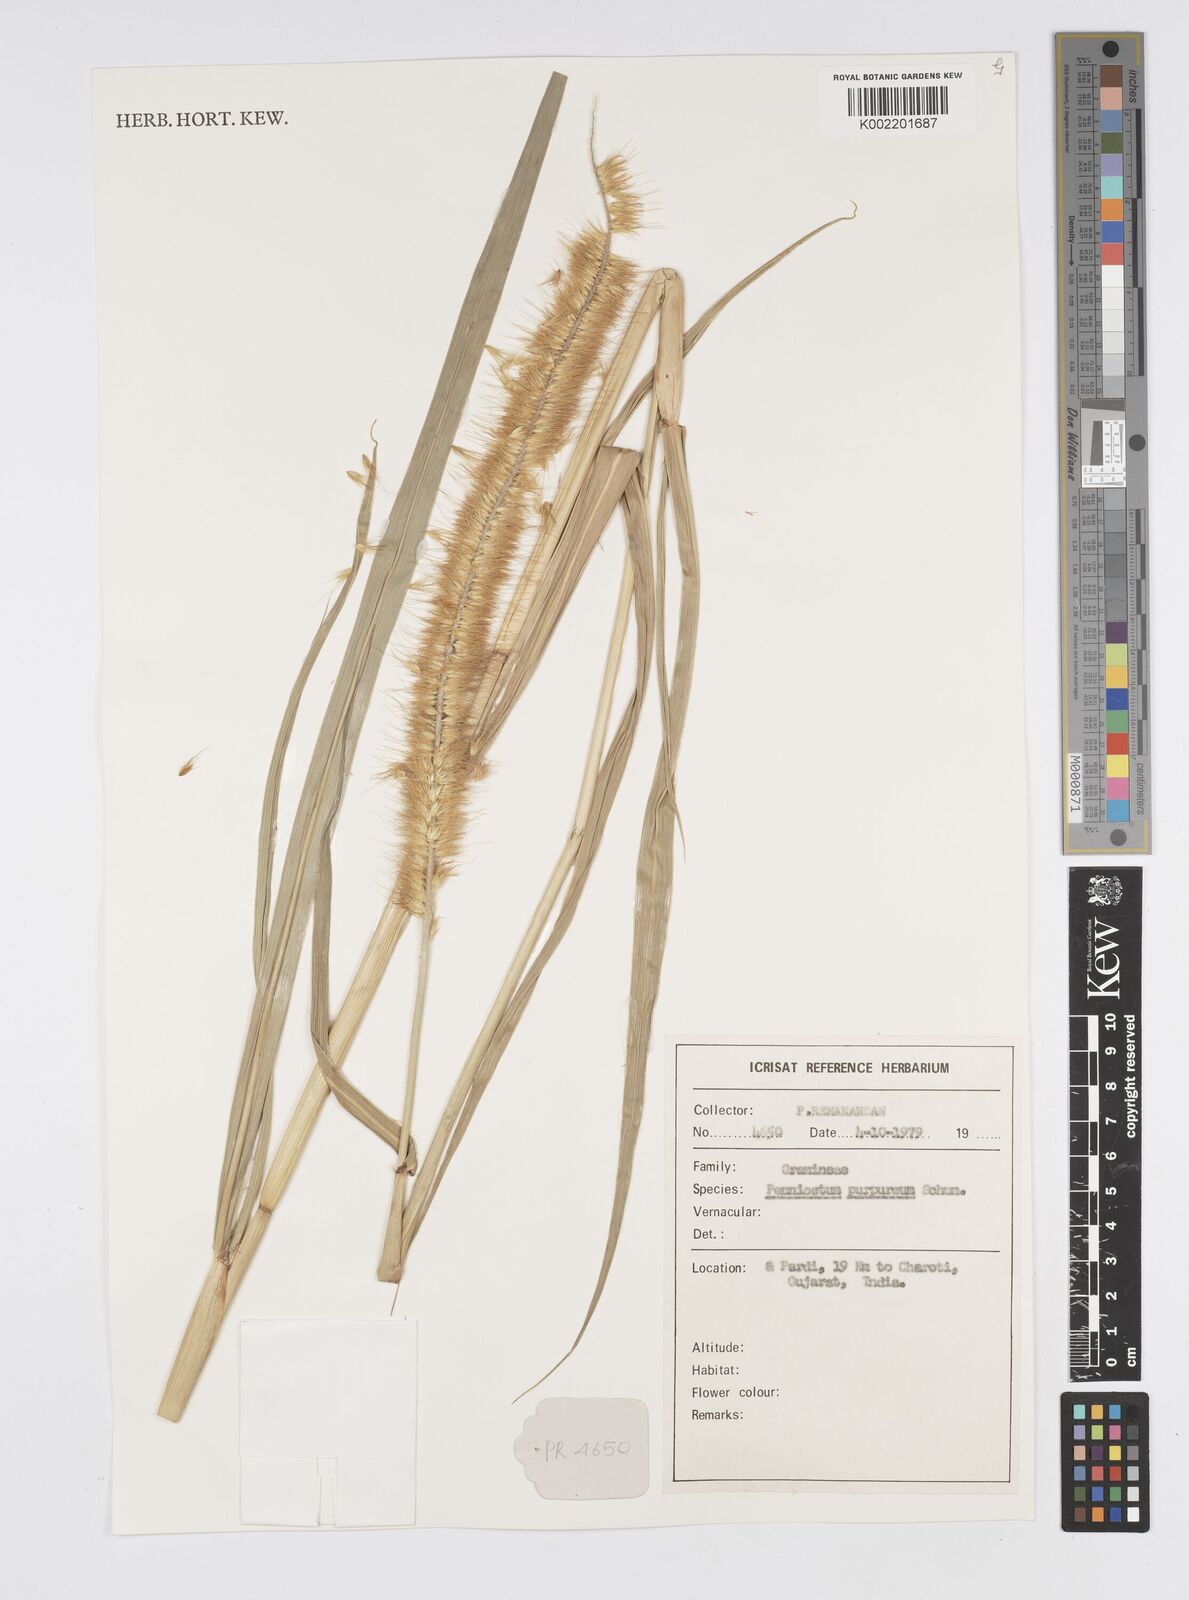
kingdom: Plantae
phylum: Tracheophyta
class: Liliopsida
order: Poales
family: Poaceae
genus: Cenchrus
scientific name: Cenchrus purpureus
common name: Elephant grass
